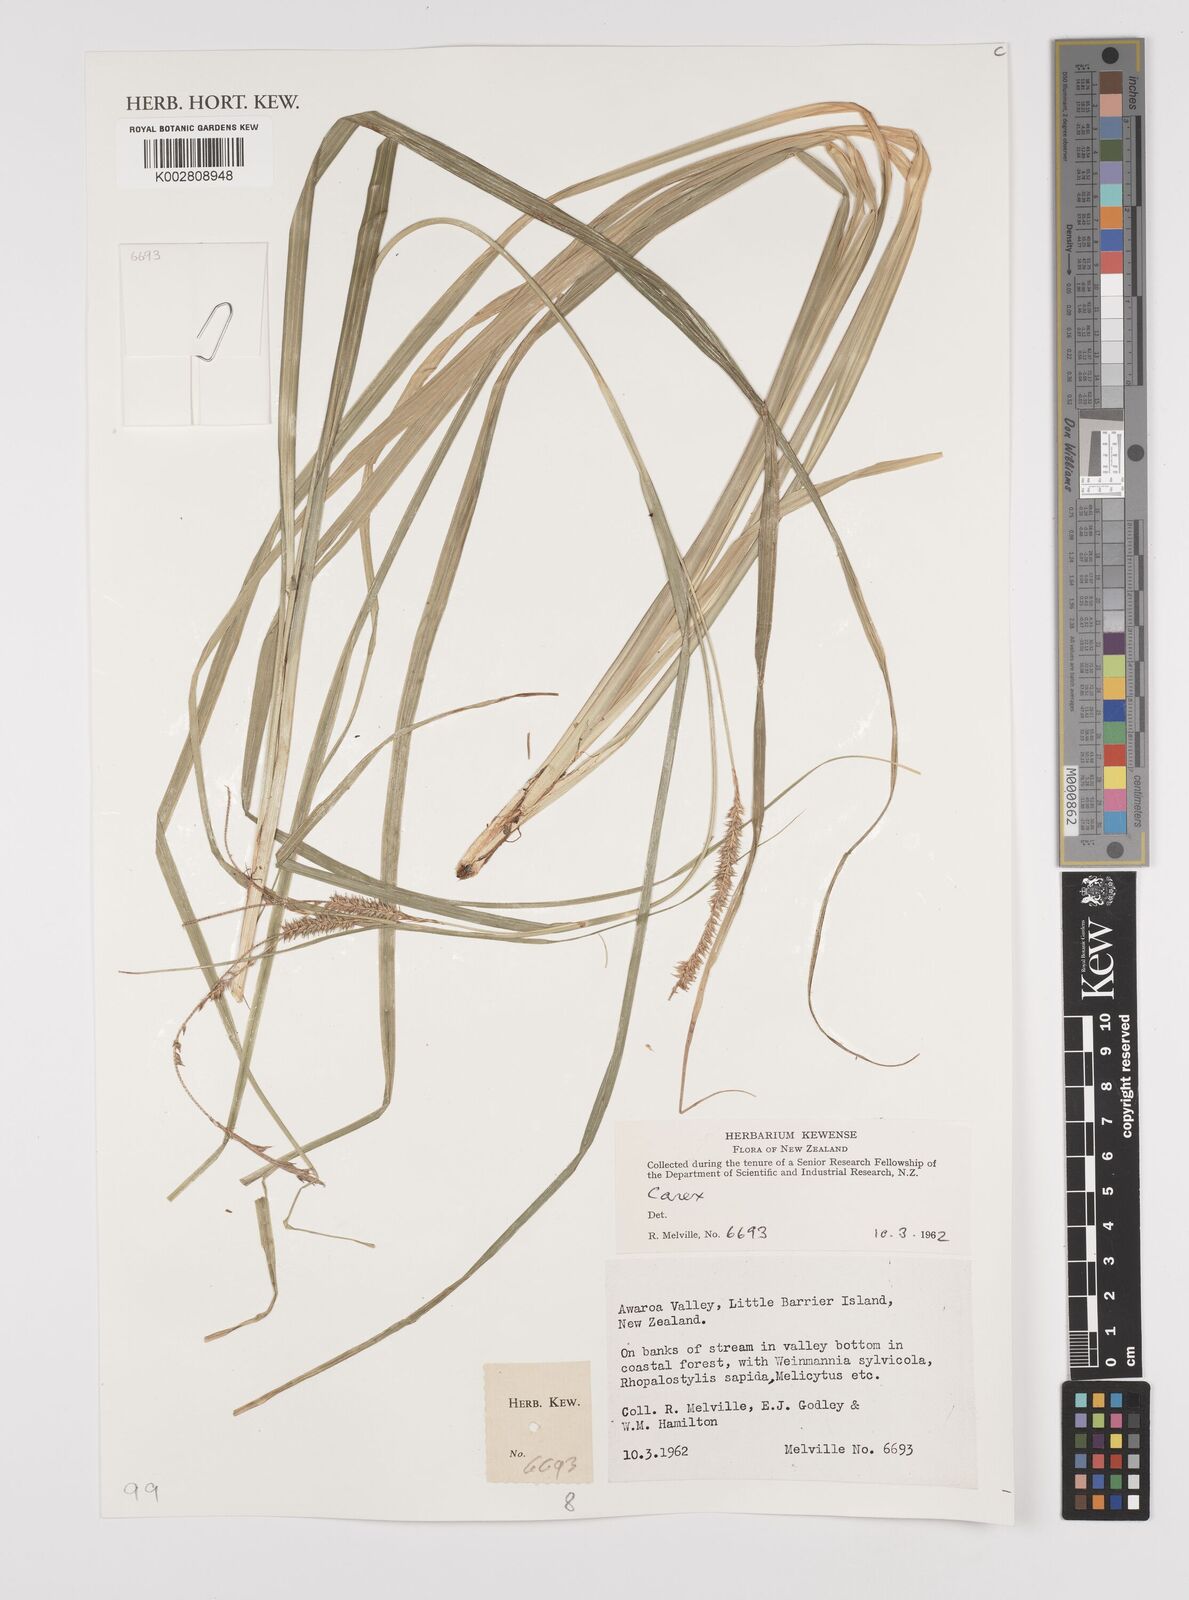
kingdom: Plantae
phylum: Tracheophyta
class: Liliopsida
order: Poales
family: Cyperaceae
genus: Carex
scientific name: Carex
